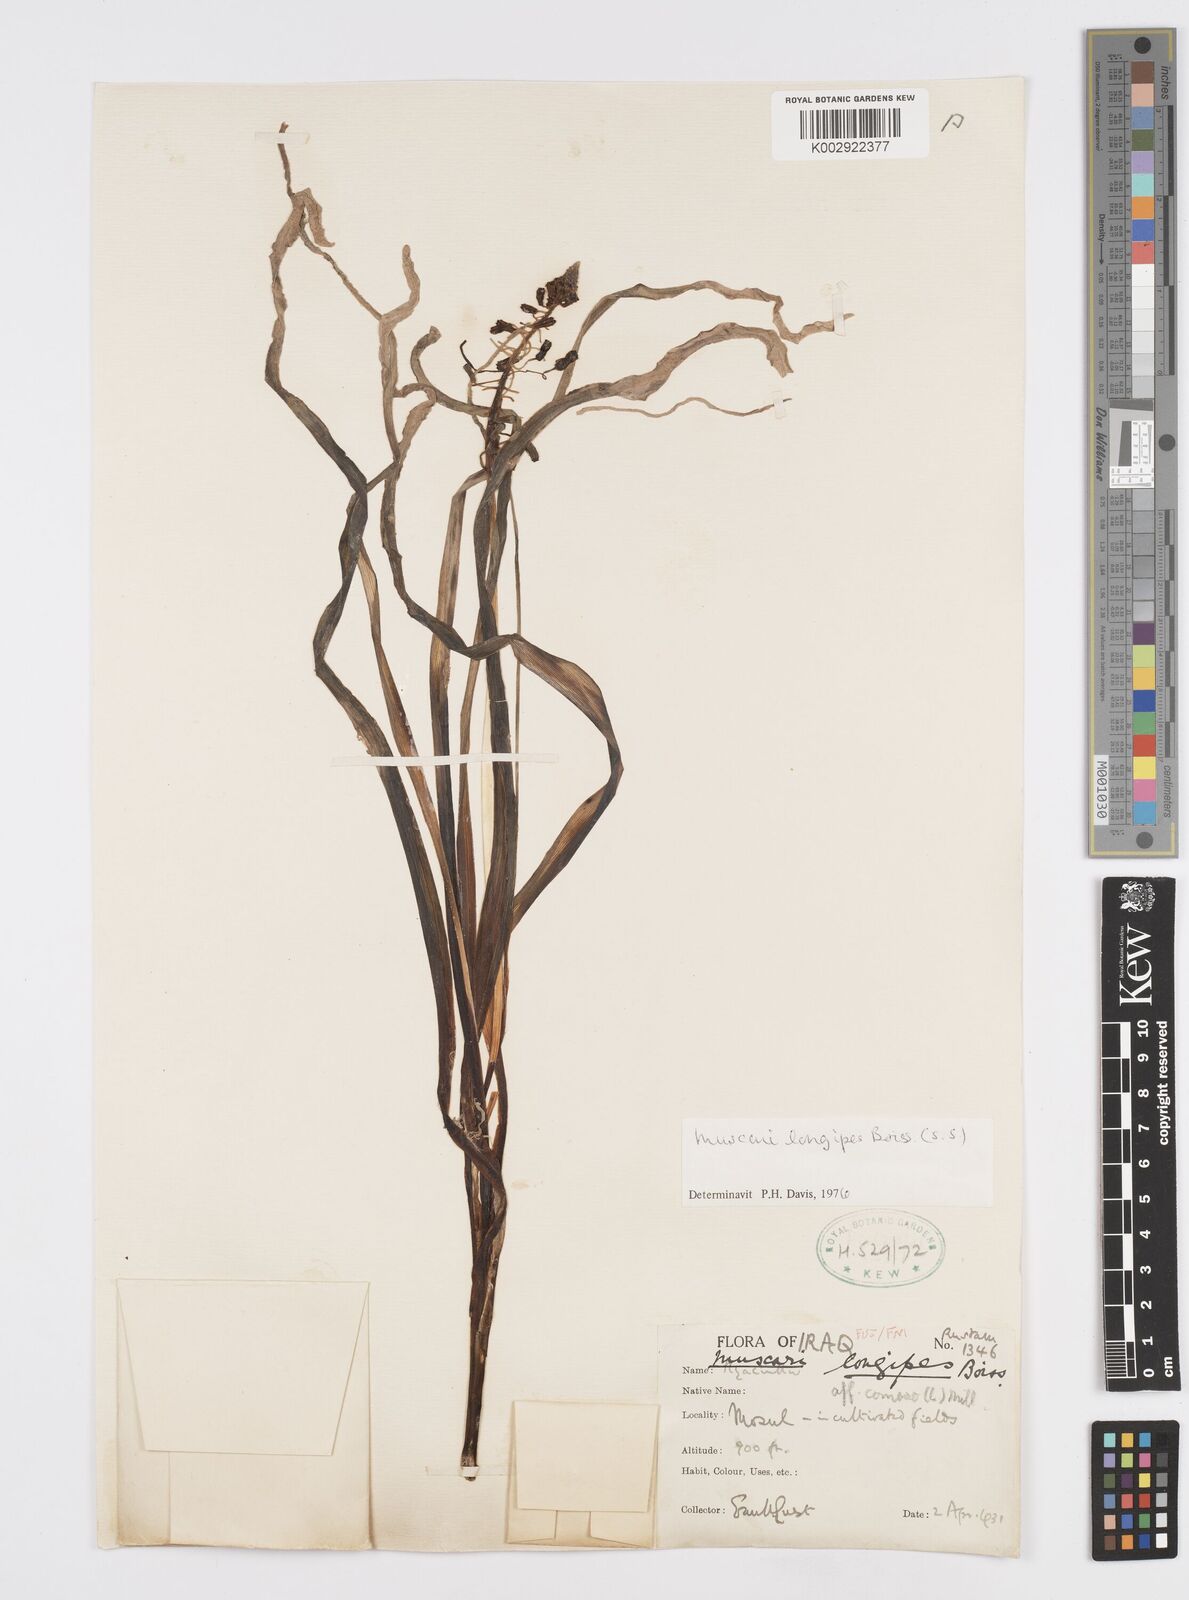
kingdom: Plantae
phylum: Tracheophyta
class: Liliopsida
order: Asparagales
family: Asparagaceae
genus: Muscari
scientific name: Muscari longipes
